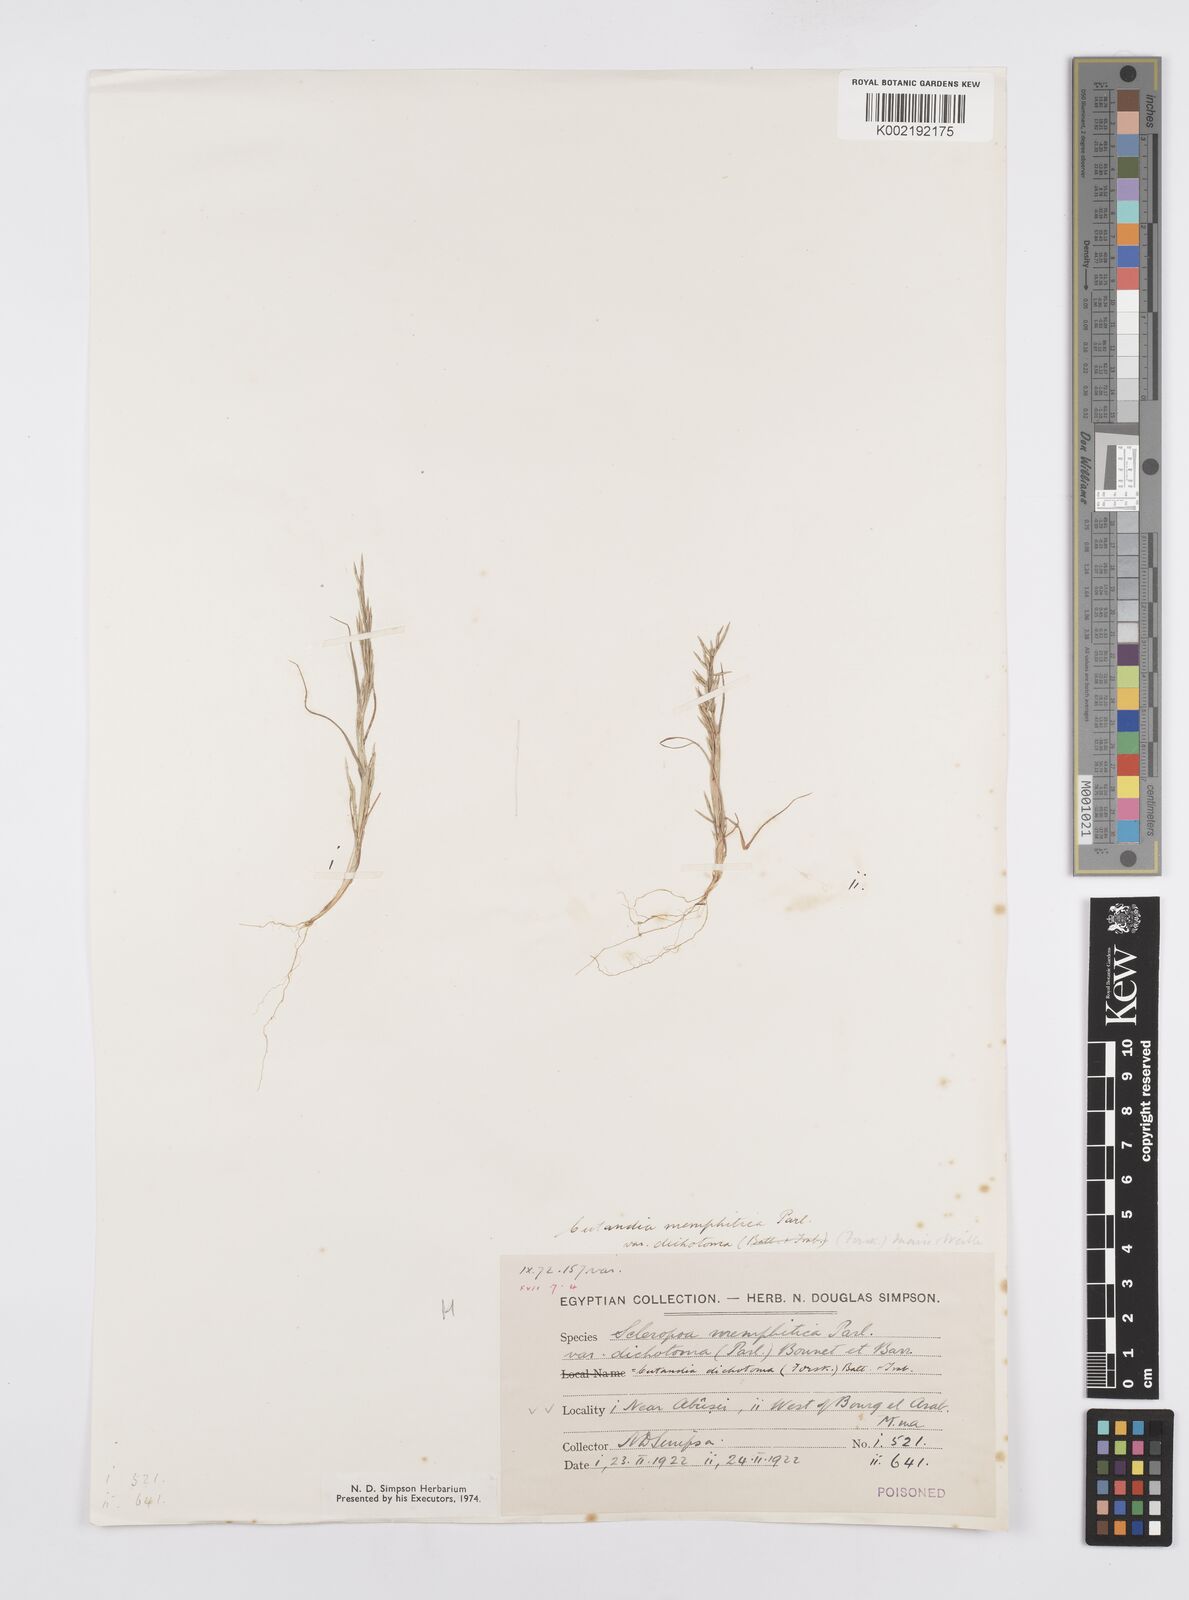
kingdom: Plantae
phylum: Tracheophyta
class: Liliopsida
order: Poales
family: Poaceae
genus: Cutandia
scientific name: Cutandia dichotoma
